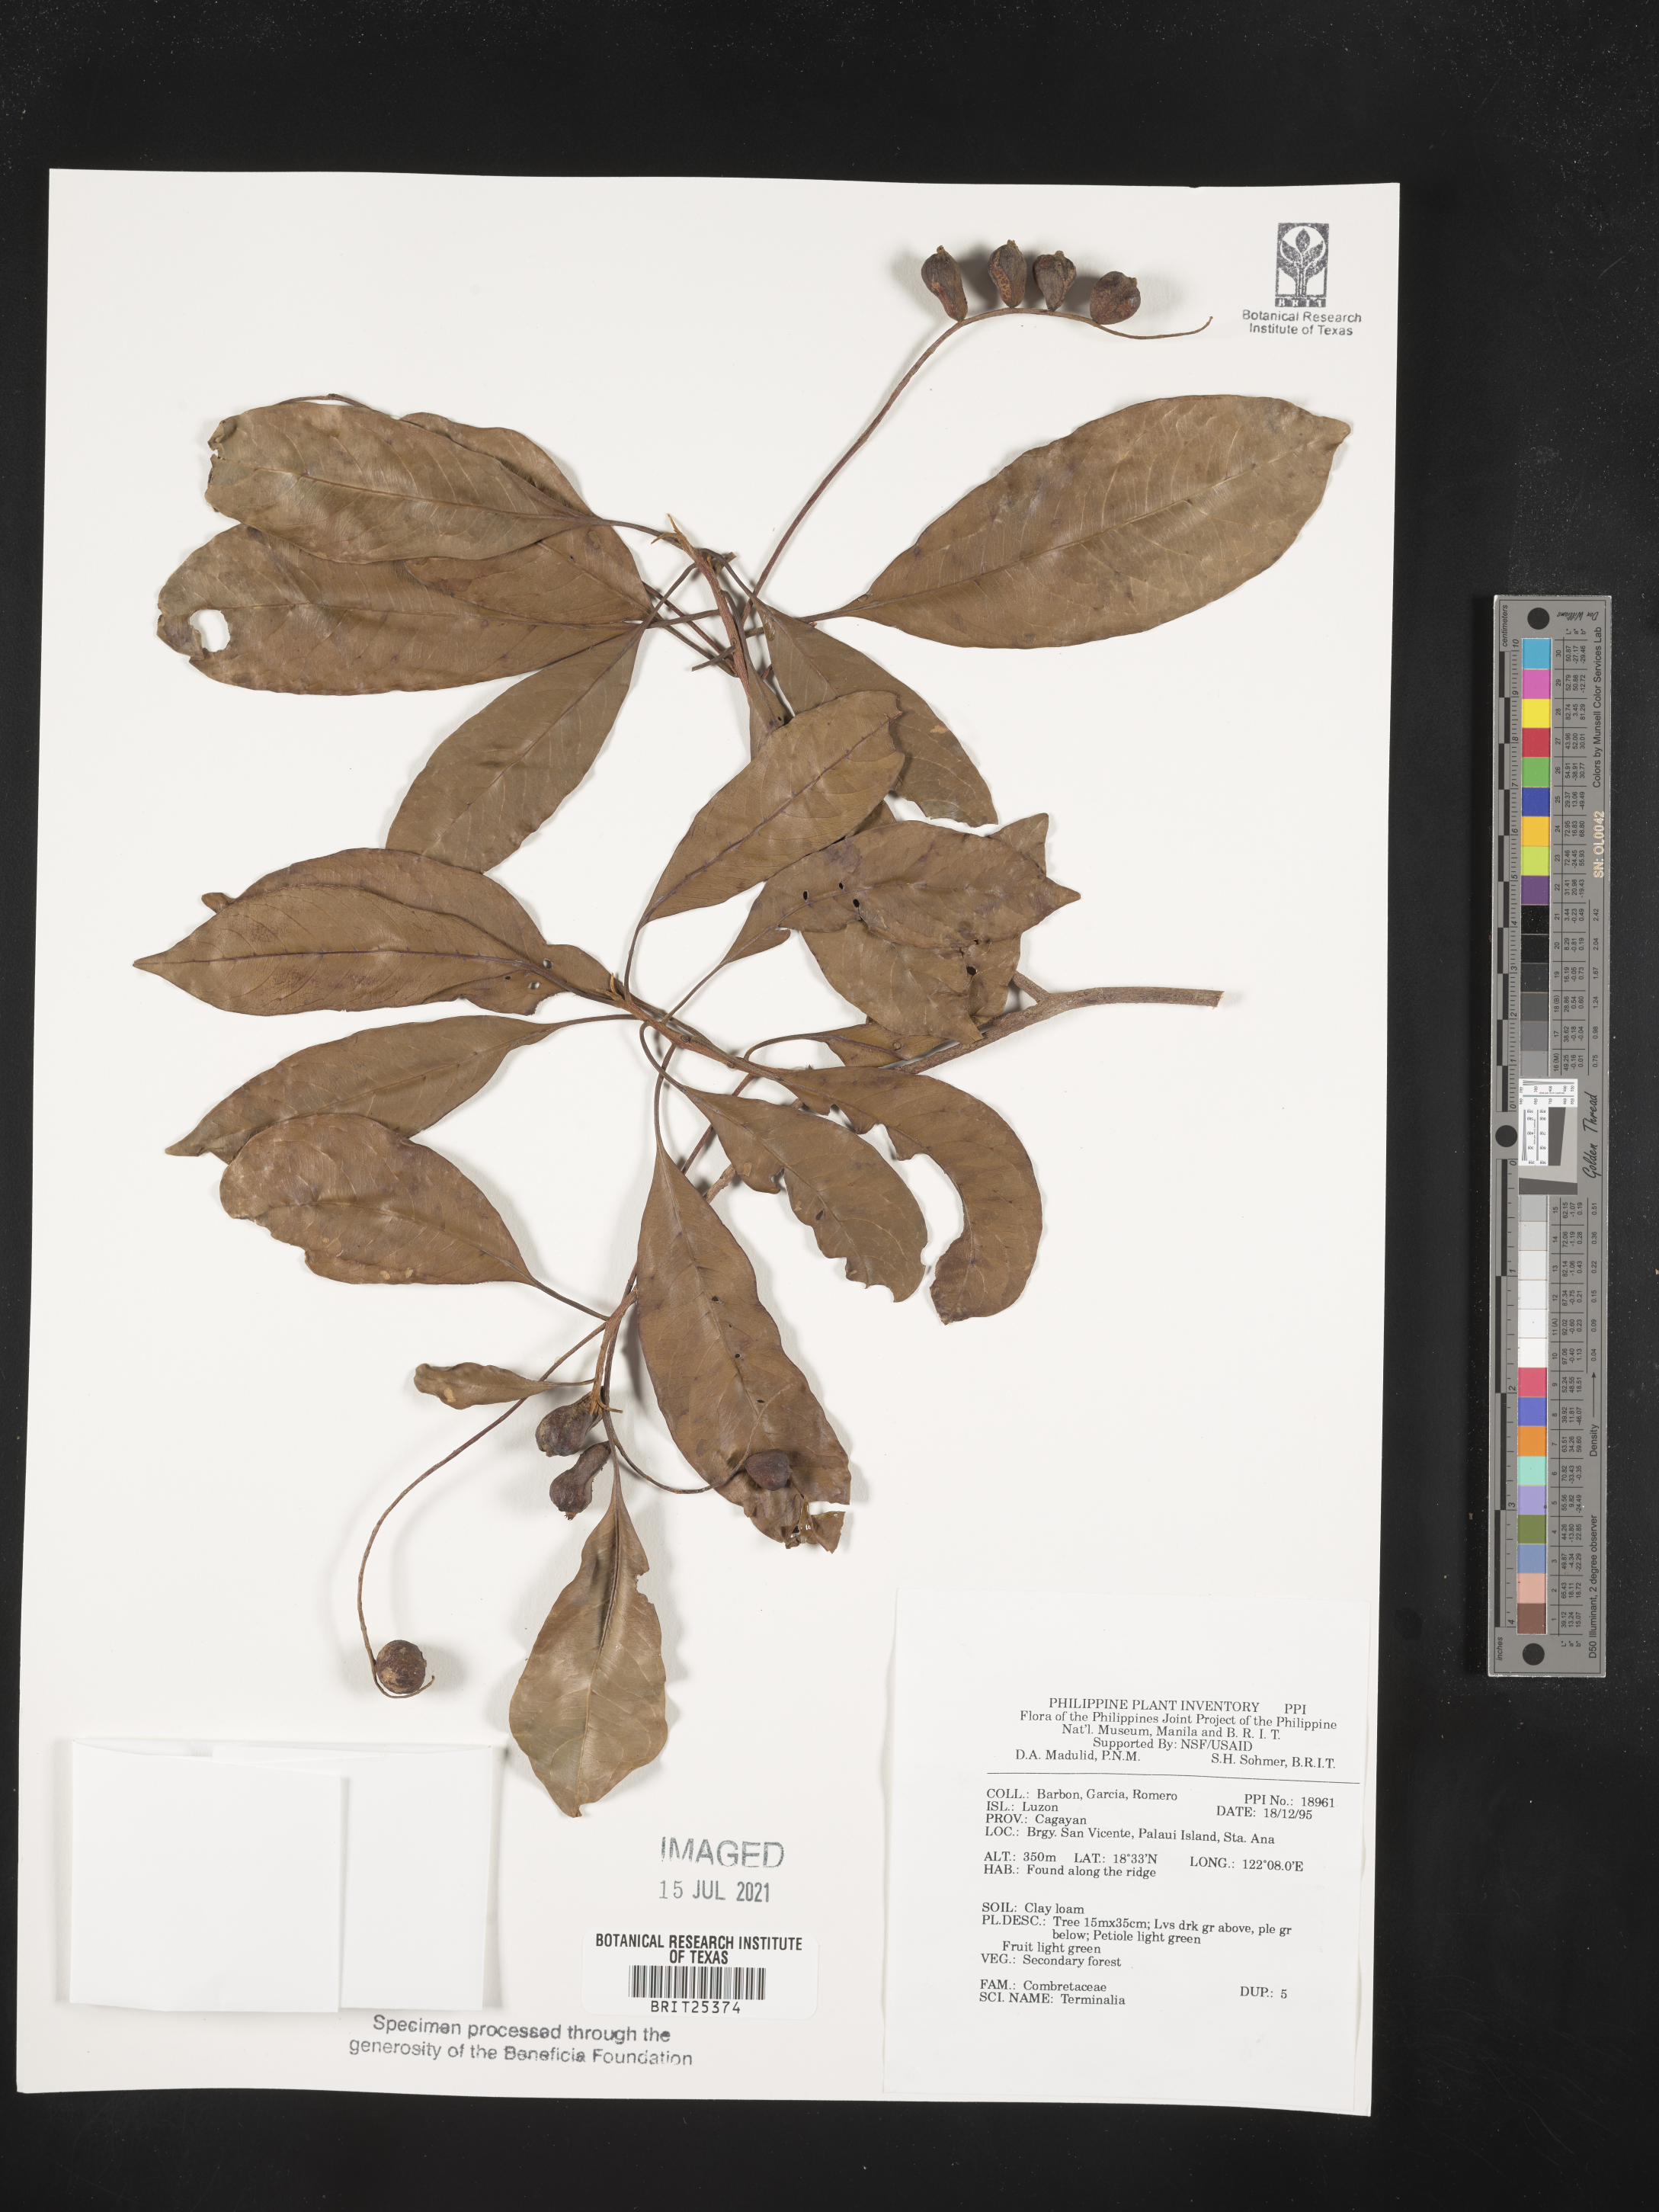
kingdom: Plantae
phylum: Tracheophyta
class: Magnoliopsida
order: Myrtales
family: Combretaceae
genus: Terminalia
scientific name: Terminalia
